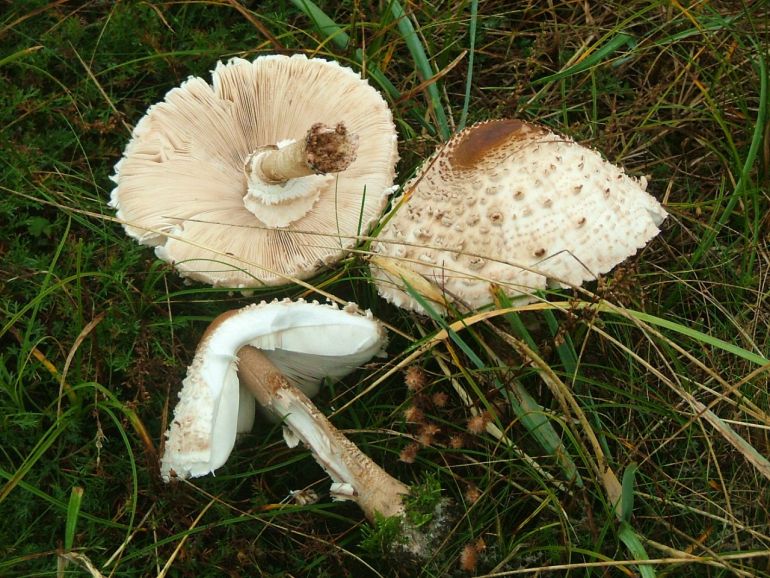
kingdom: Fungi
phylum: Basidiomycota
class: Agaricomycetes
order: Agaricales
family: Agaricaceae
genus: Macrolepiota
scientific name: Macrolepiota procera
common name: stor kæmpeparasolhat
